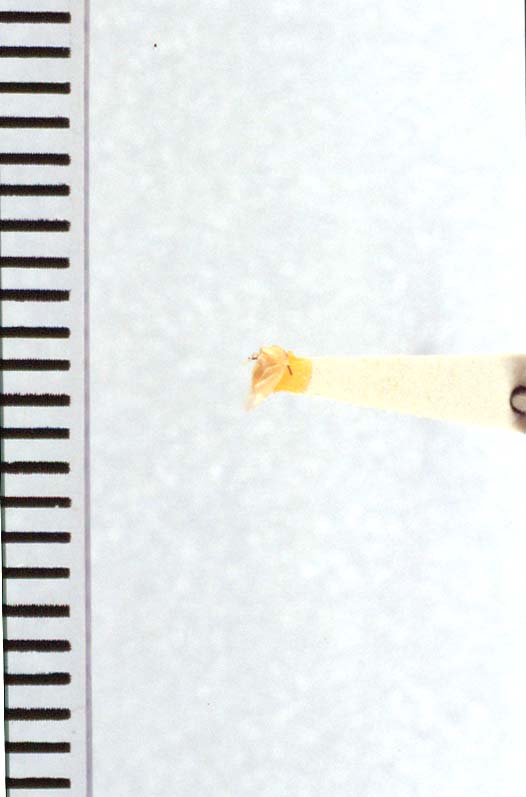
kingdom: Animalia
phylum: Arthropoda
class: Insecta
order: Hemiptera
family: Miridae
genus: Campylomma
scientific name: Campylomma aitutaki
